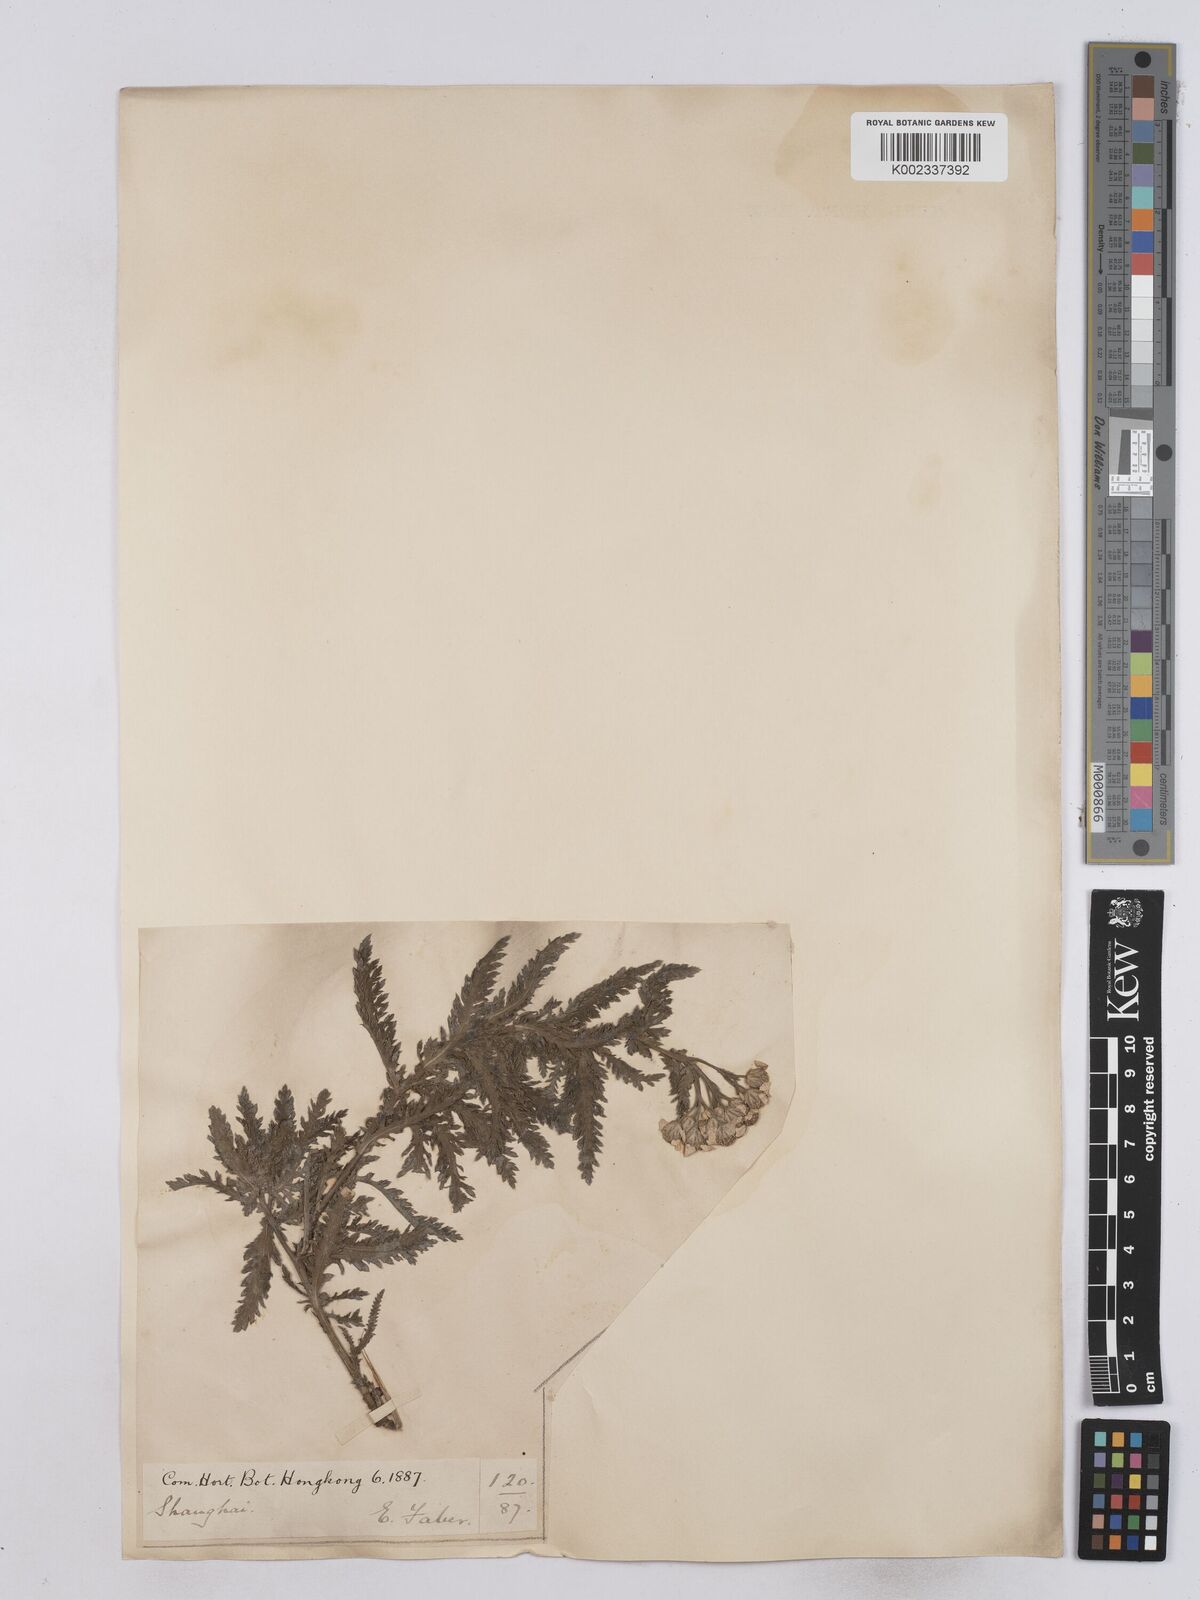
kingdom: Plantae
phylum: Tracheophyta
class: Magnoliopsida
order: Asterales
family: Asteraceae
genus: Achillea
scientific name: Achillea alpina
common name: Siberian yarrow
